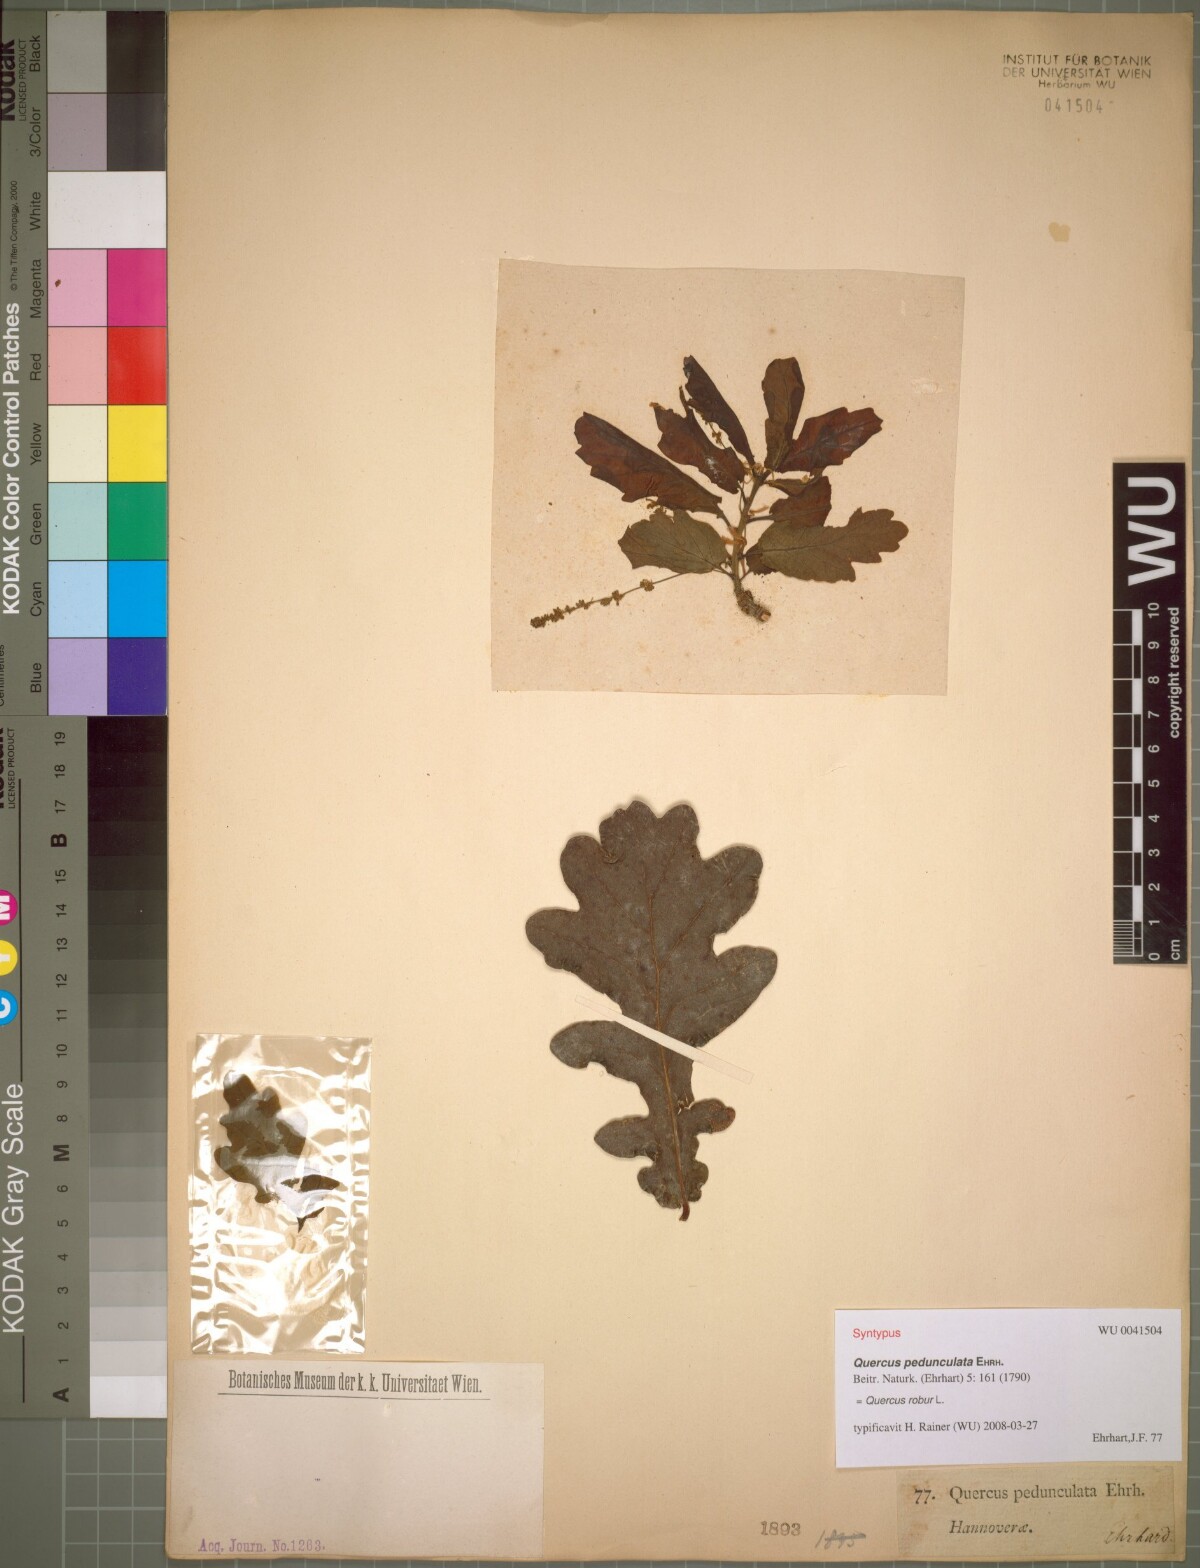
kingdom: Plantae
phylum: Tracheophyta
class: Magnoliopsida
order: Fagales
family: Fagaceae
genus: Quercus
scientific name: Quercus robur
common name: Pedunculate oak
